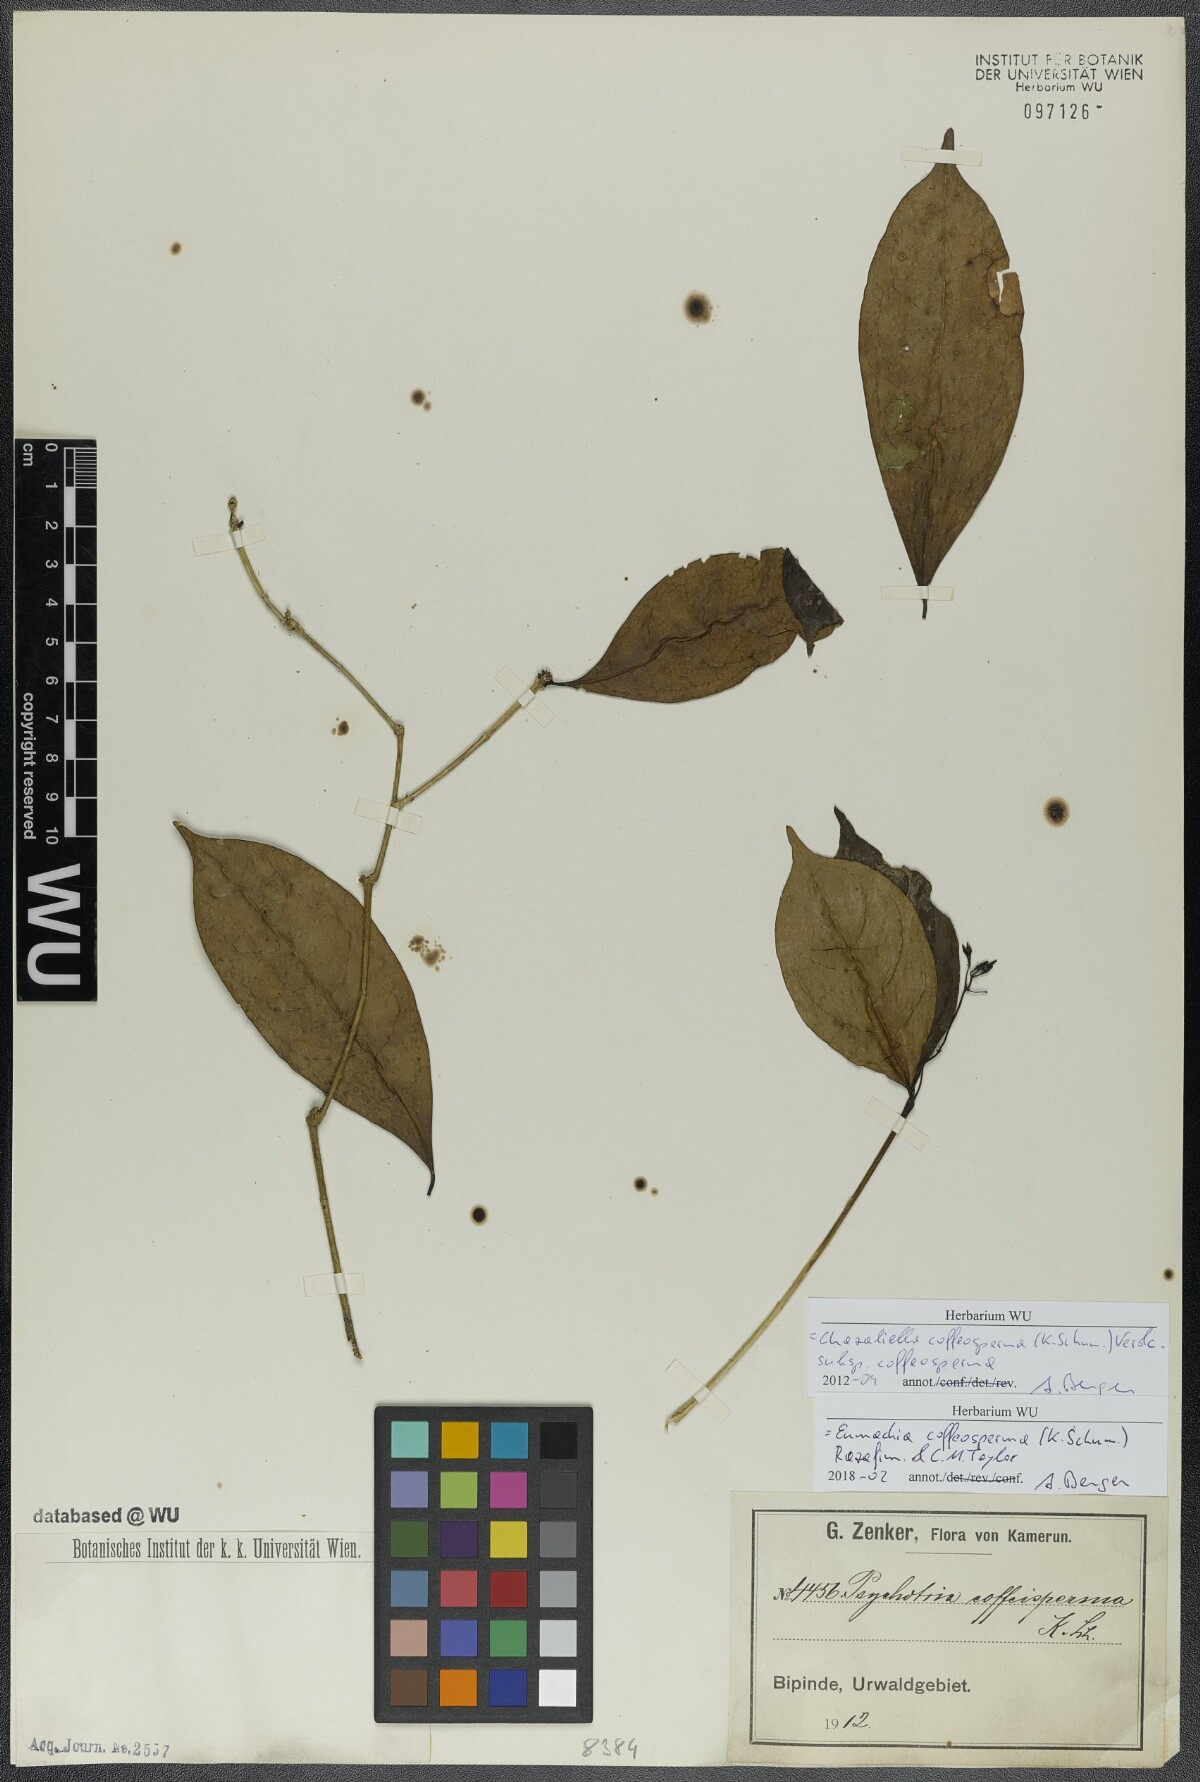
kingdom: Plantae
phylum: Tracheophyta
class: Magnoliopsida
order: Gentianales
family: Rubiaceae
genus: Eumachia
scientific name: Eumachia coffeosperma
